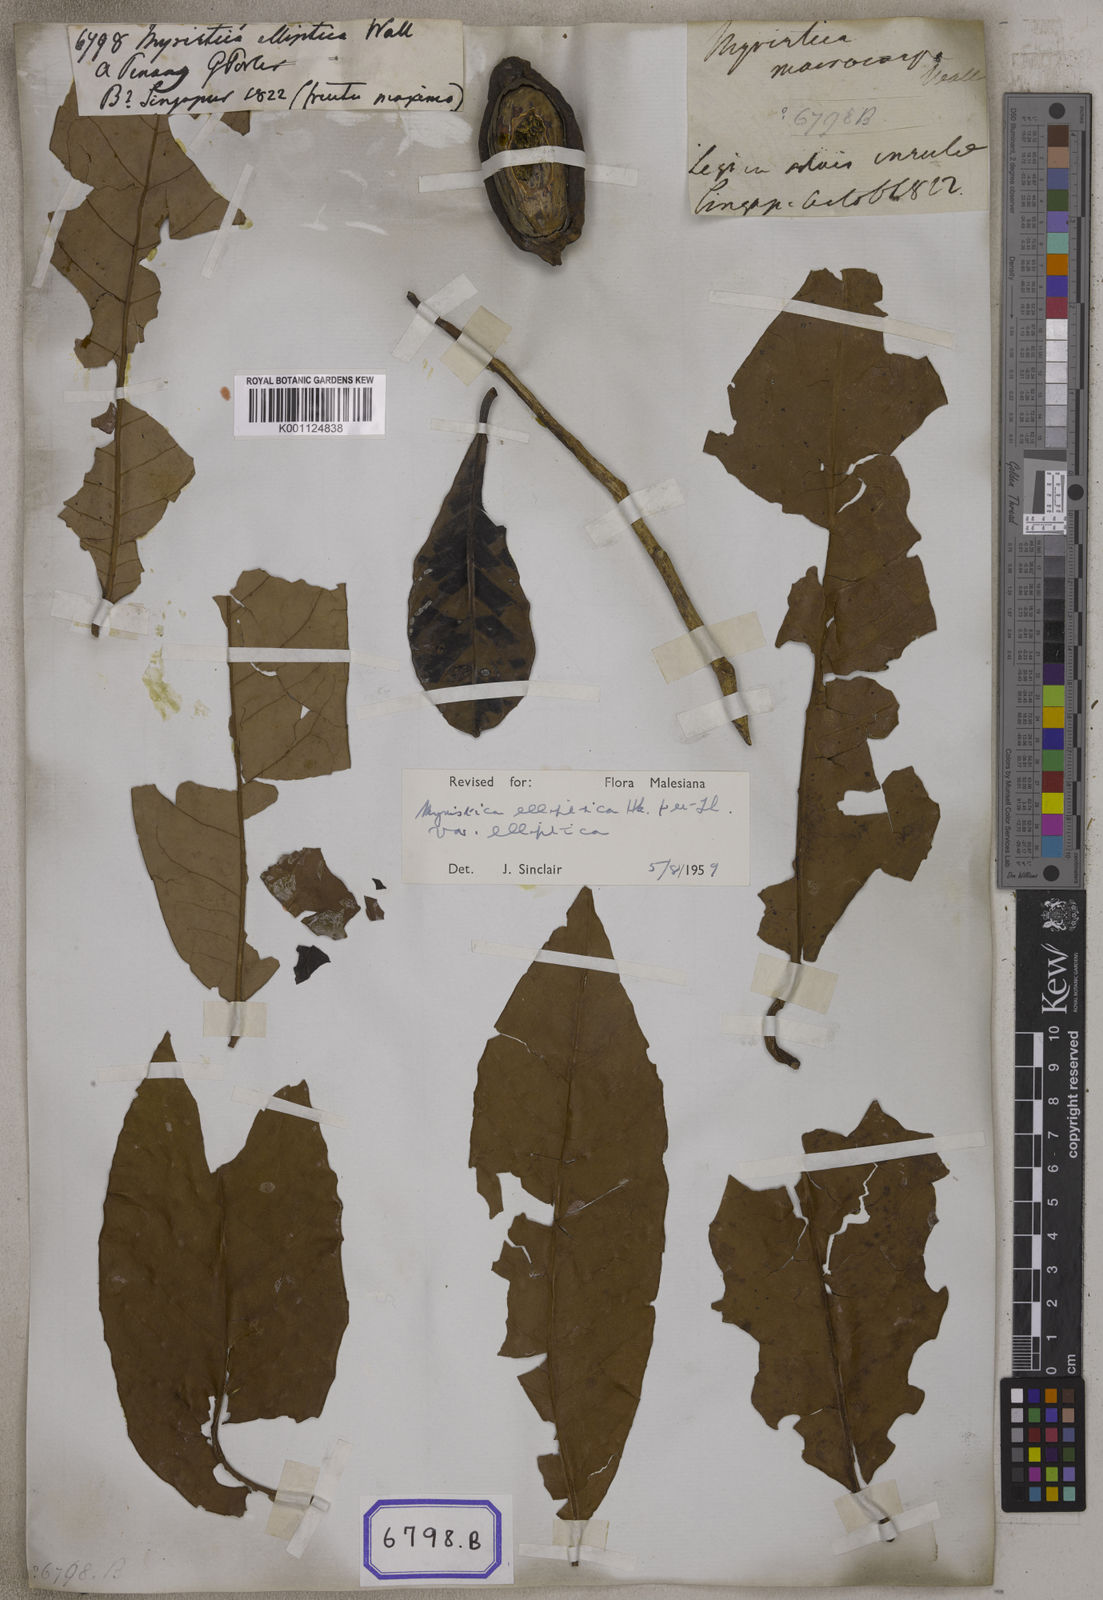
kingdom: Plantae
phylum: Tracheophyta
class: Magnoliopsida
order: Magnoliales
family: Myristicaceae
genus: Myristica
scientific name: Myristica
